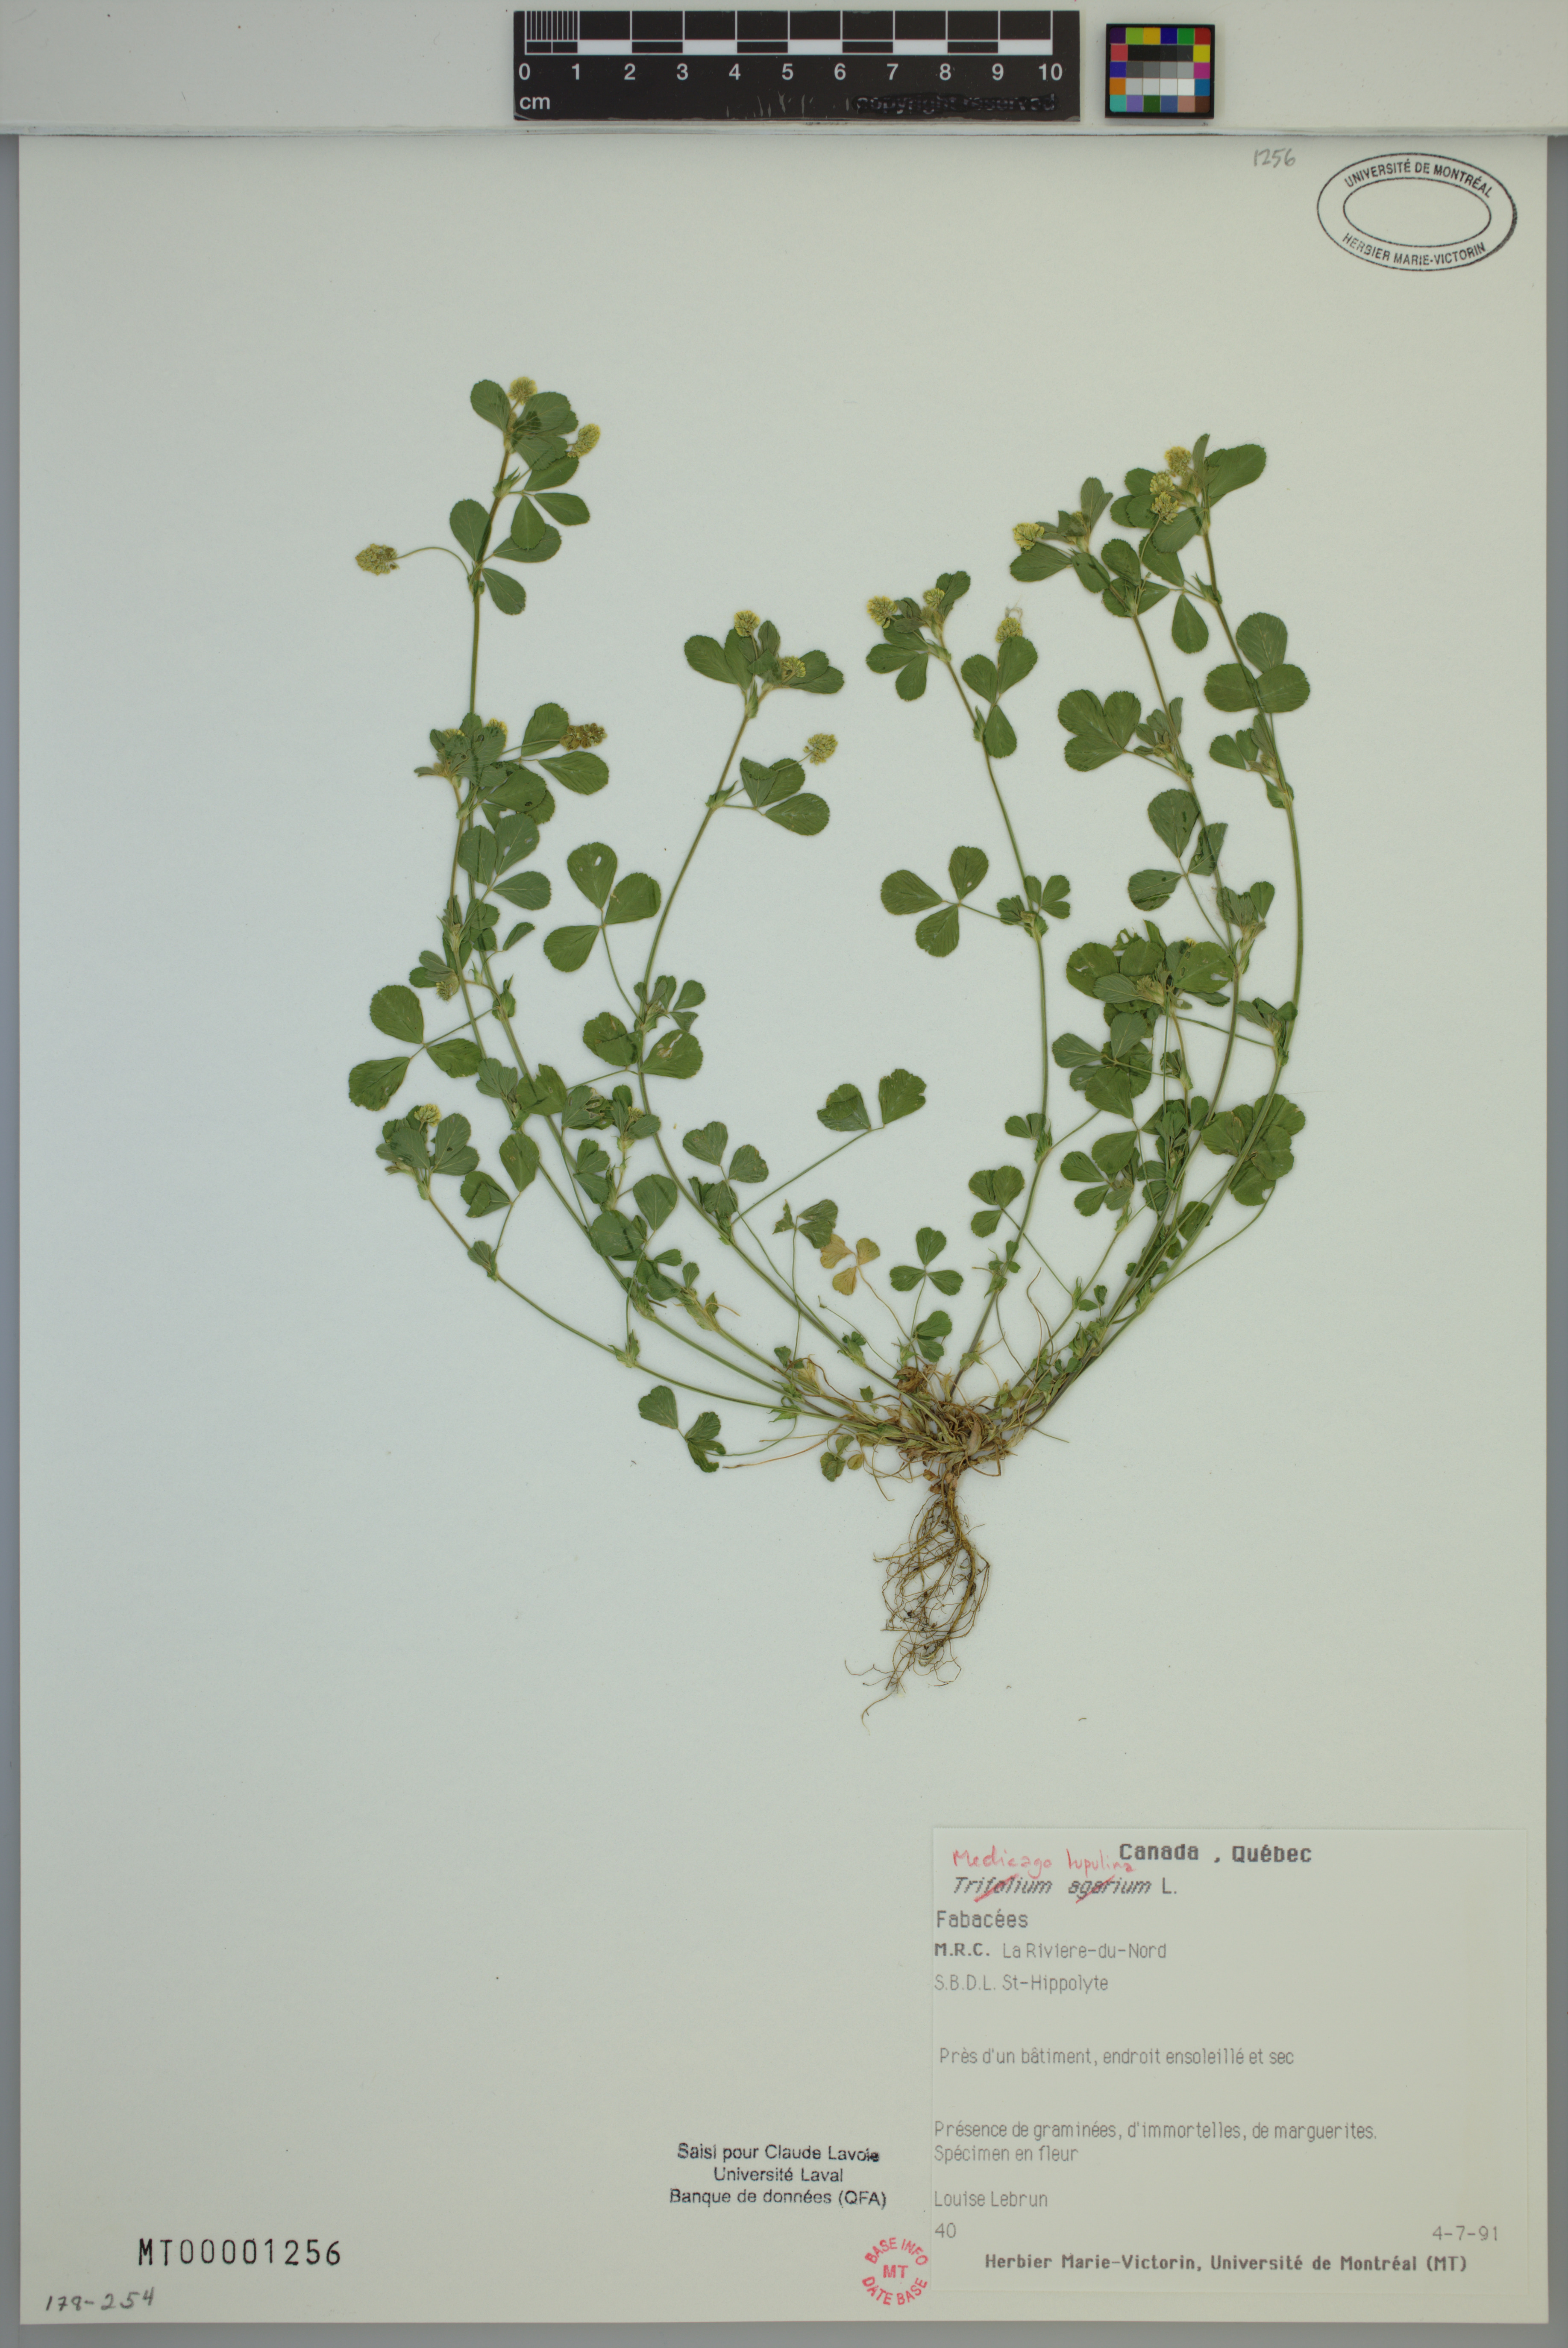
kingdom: Plantae
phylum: Tracheophyta
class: Magnoliopsida
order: Fabales
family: Fabaceae
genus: Medicago
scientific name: Medicago lupulina
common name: Black medick
